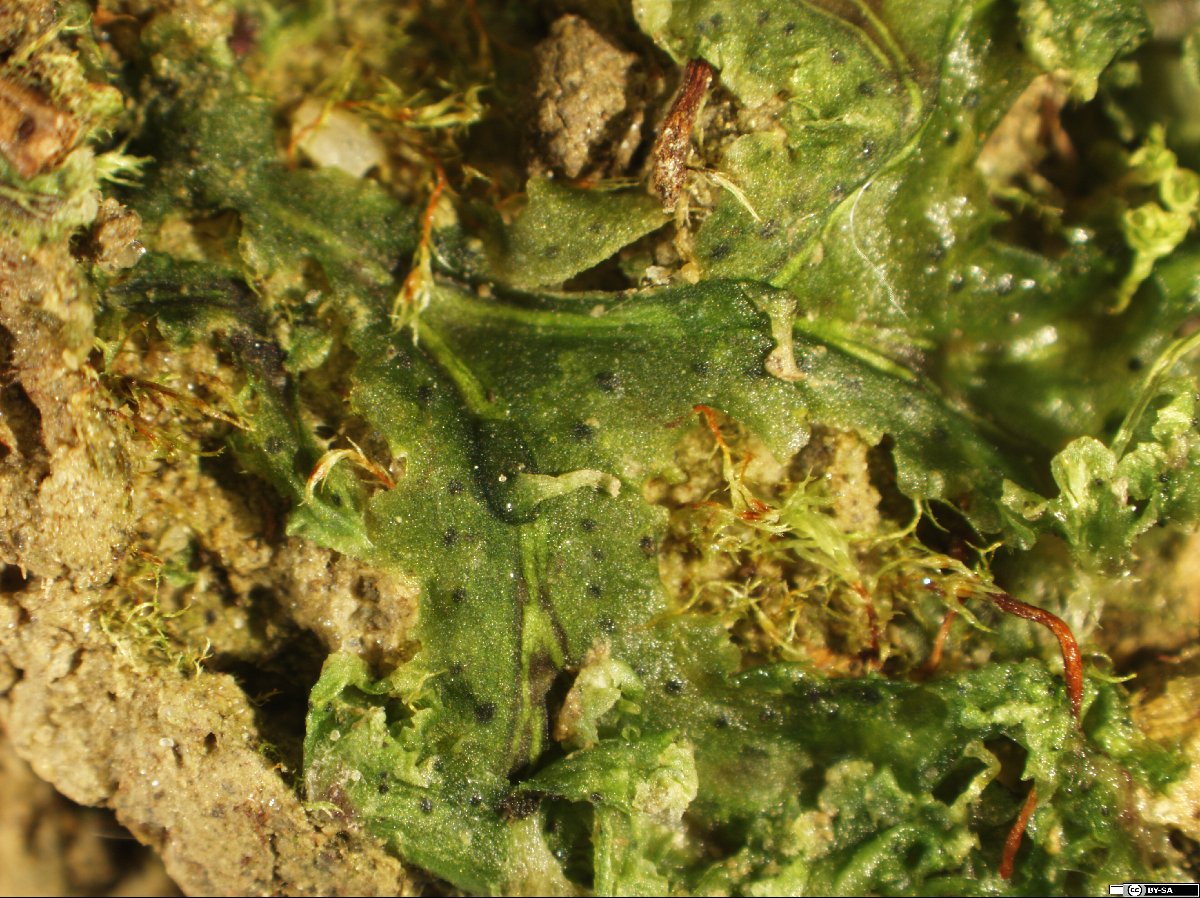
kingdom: Plantae
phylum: Marchantiophyta
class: Marchantiopsida
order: Blasiales
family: Blasiaceae
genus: Blasia
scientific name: Blasia pusilla
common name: Common kettlewort
